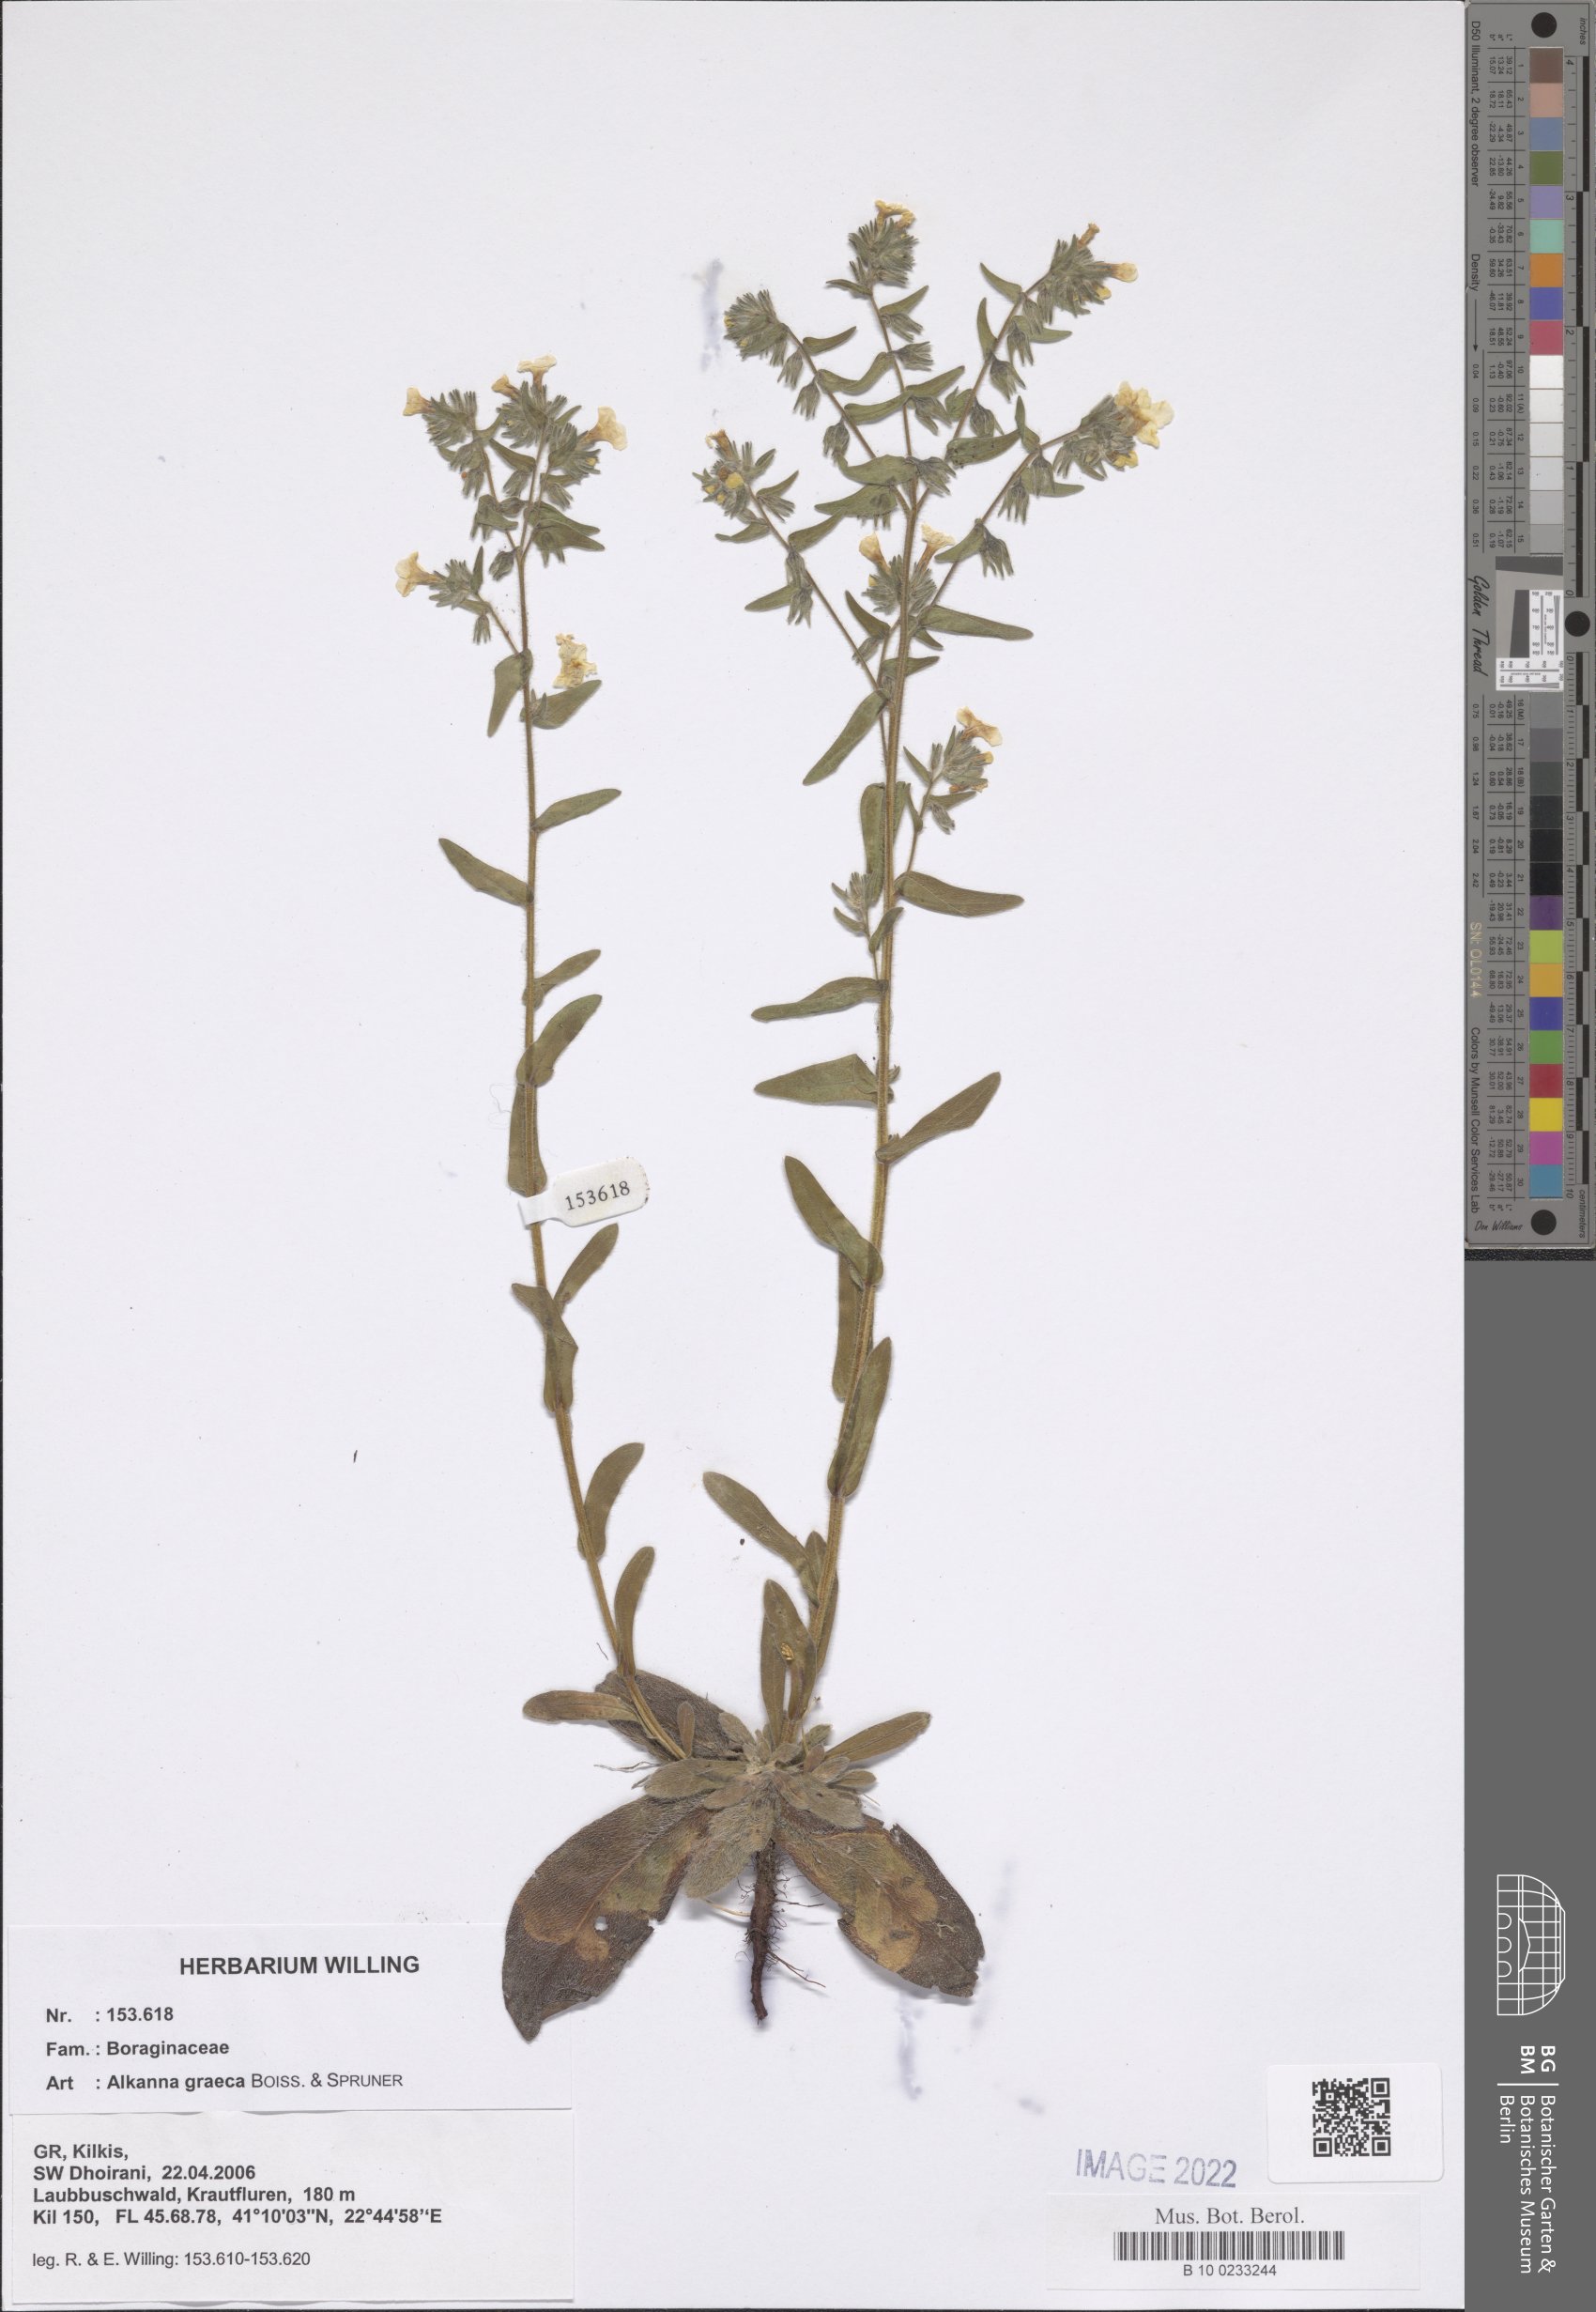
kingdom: Plantae
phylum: Tracheophyta
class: Magnoliopsida
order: Boraginales
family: Boraginaceae
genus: Alkanna
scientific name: Alkanna graeca
